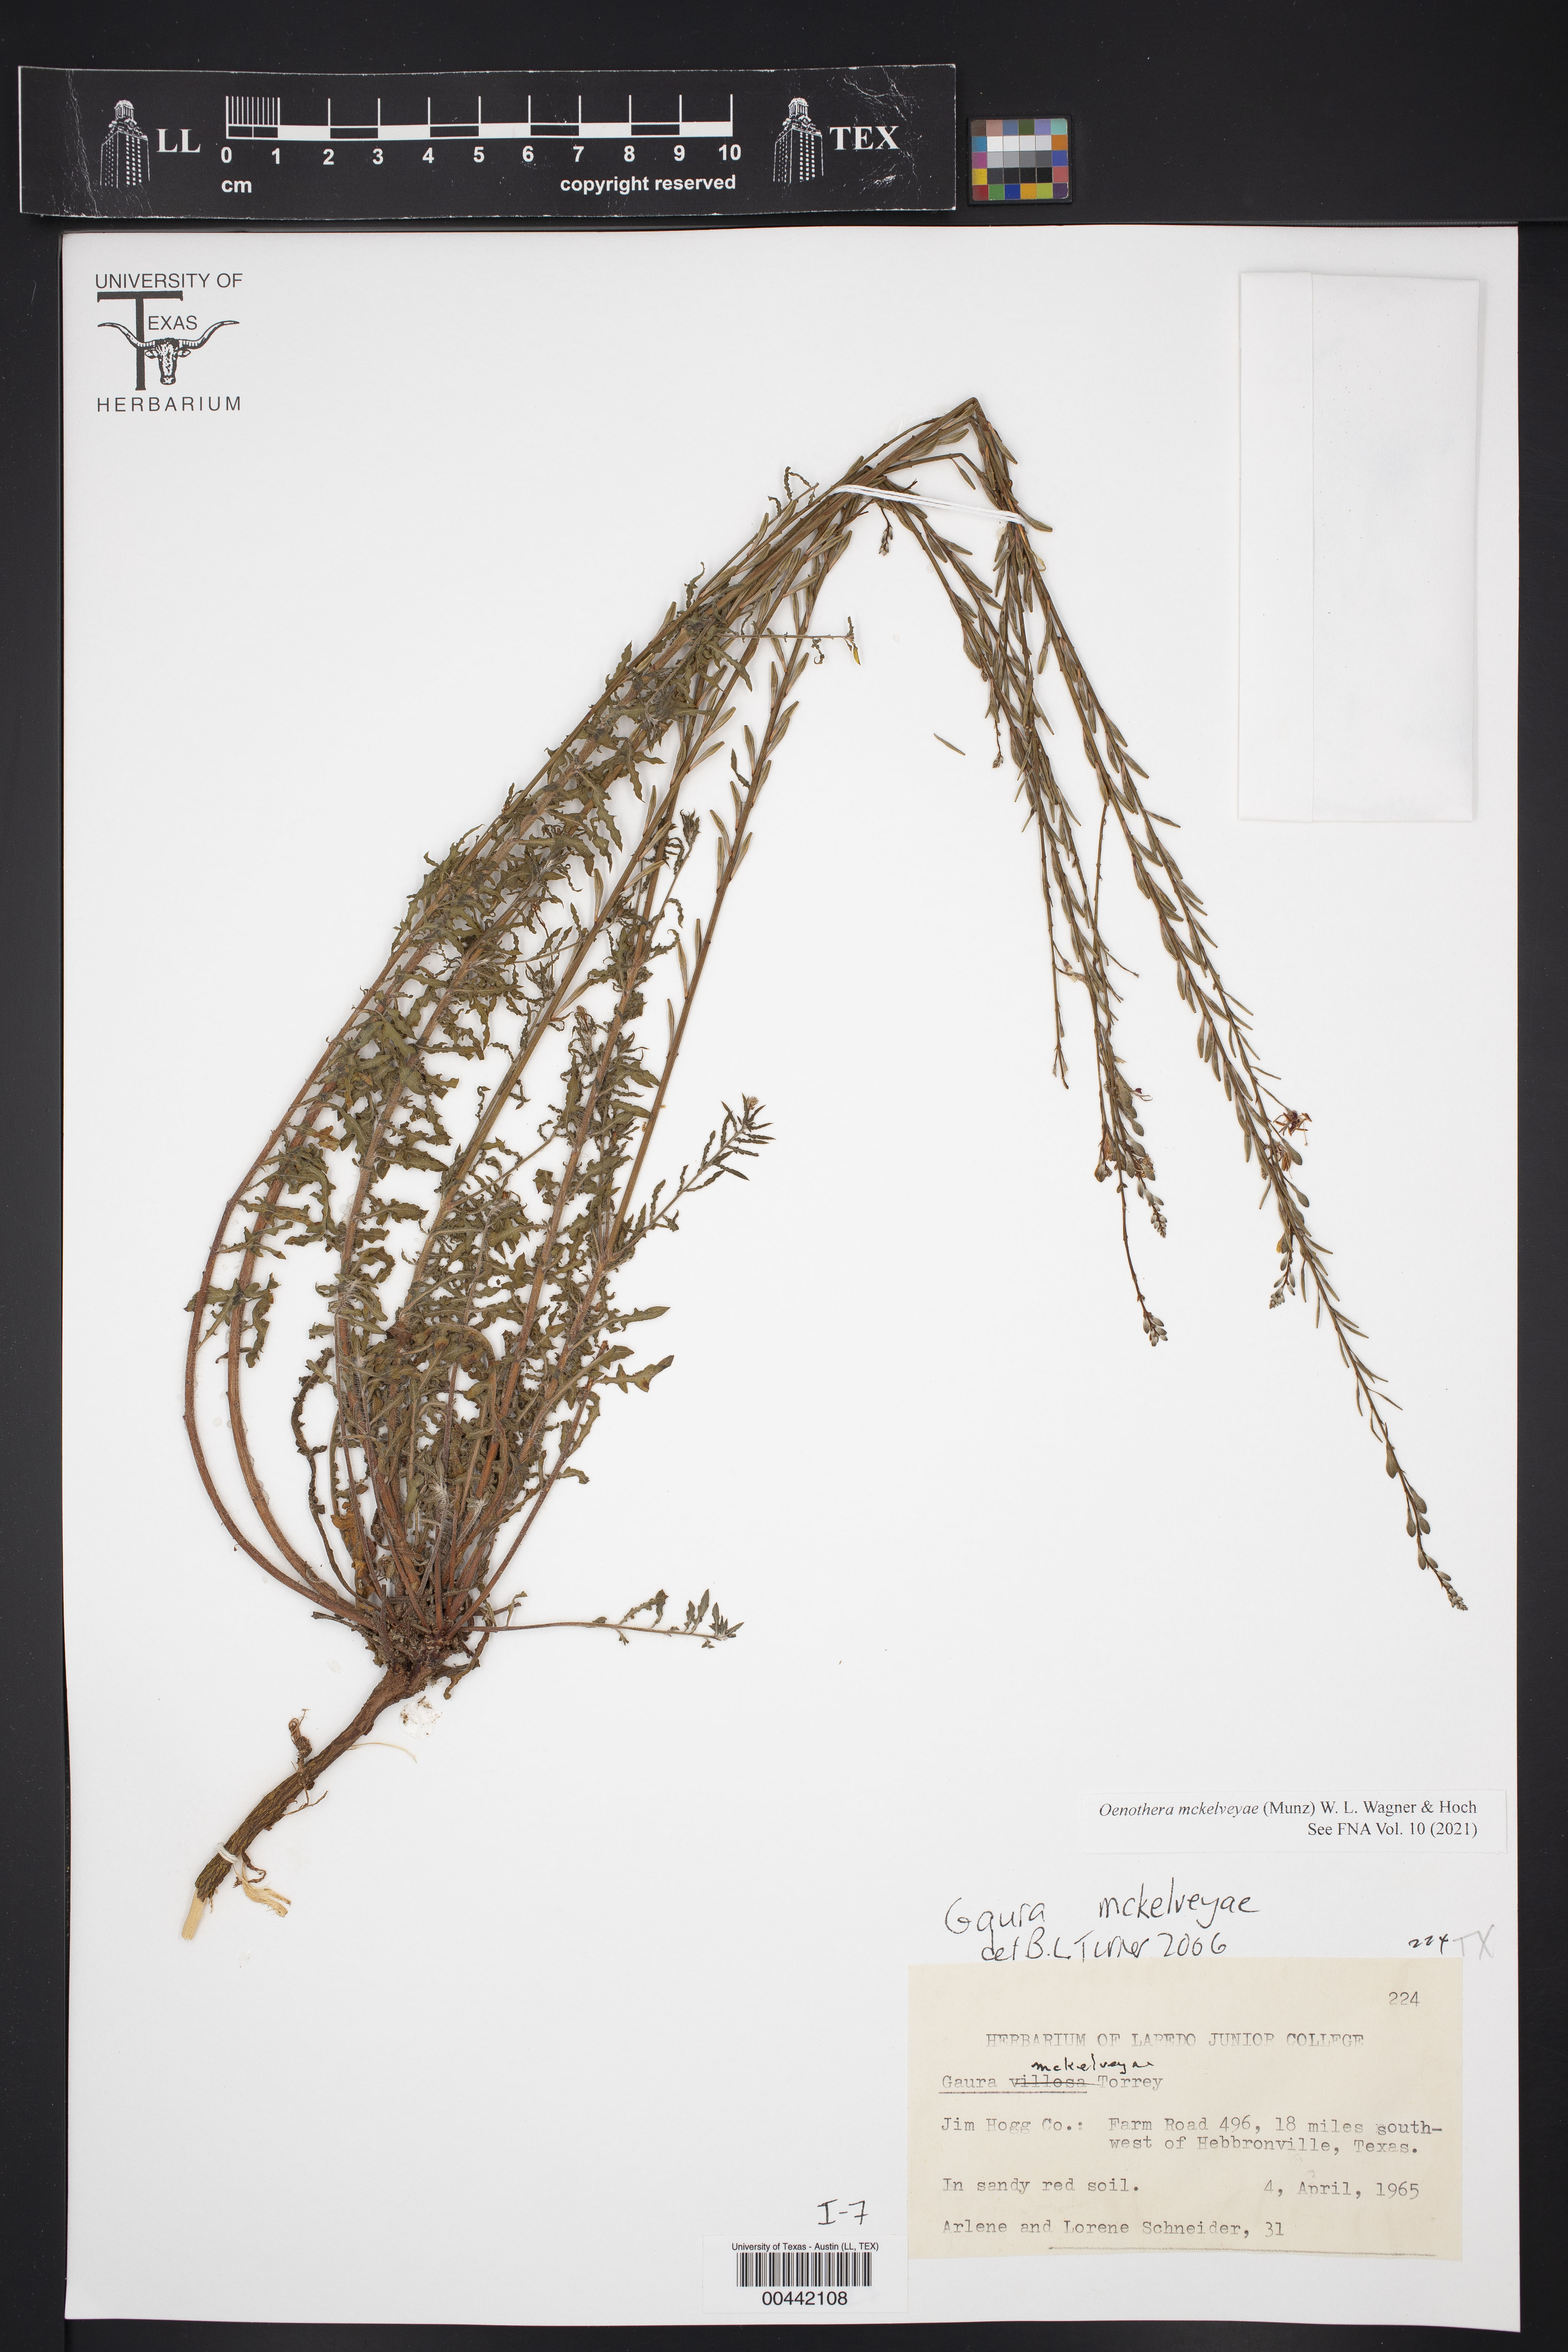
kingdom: Plantae
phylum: Tracheophyta
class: Magnoliopsida
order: Myrtales
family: Onagraceae
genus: Oenothera
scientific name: Oenothera mckelveyae
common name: Mckelvey's beeblossom
